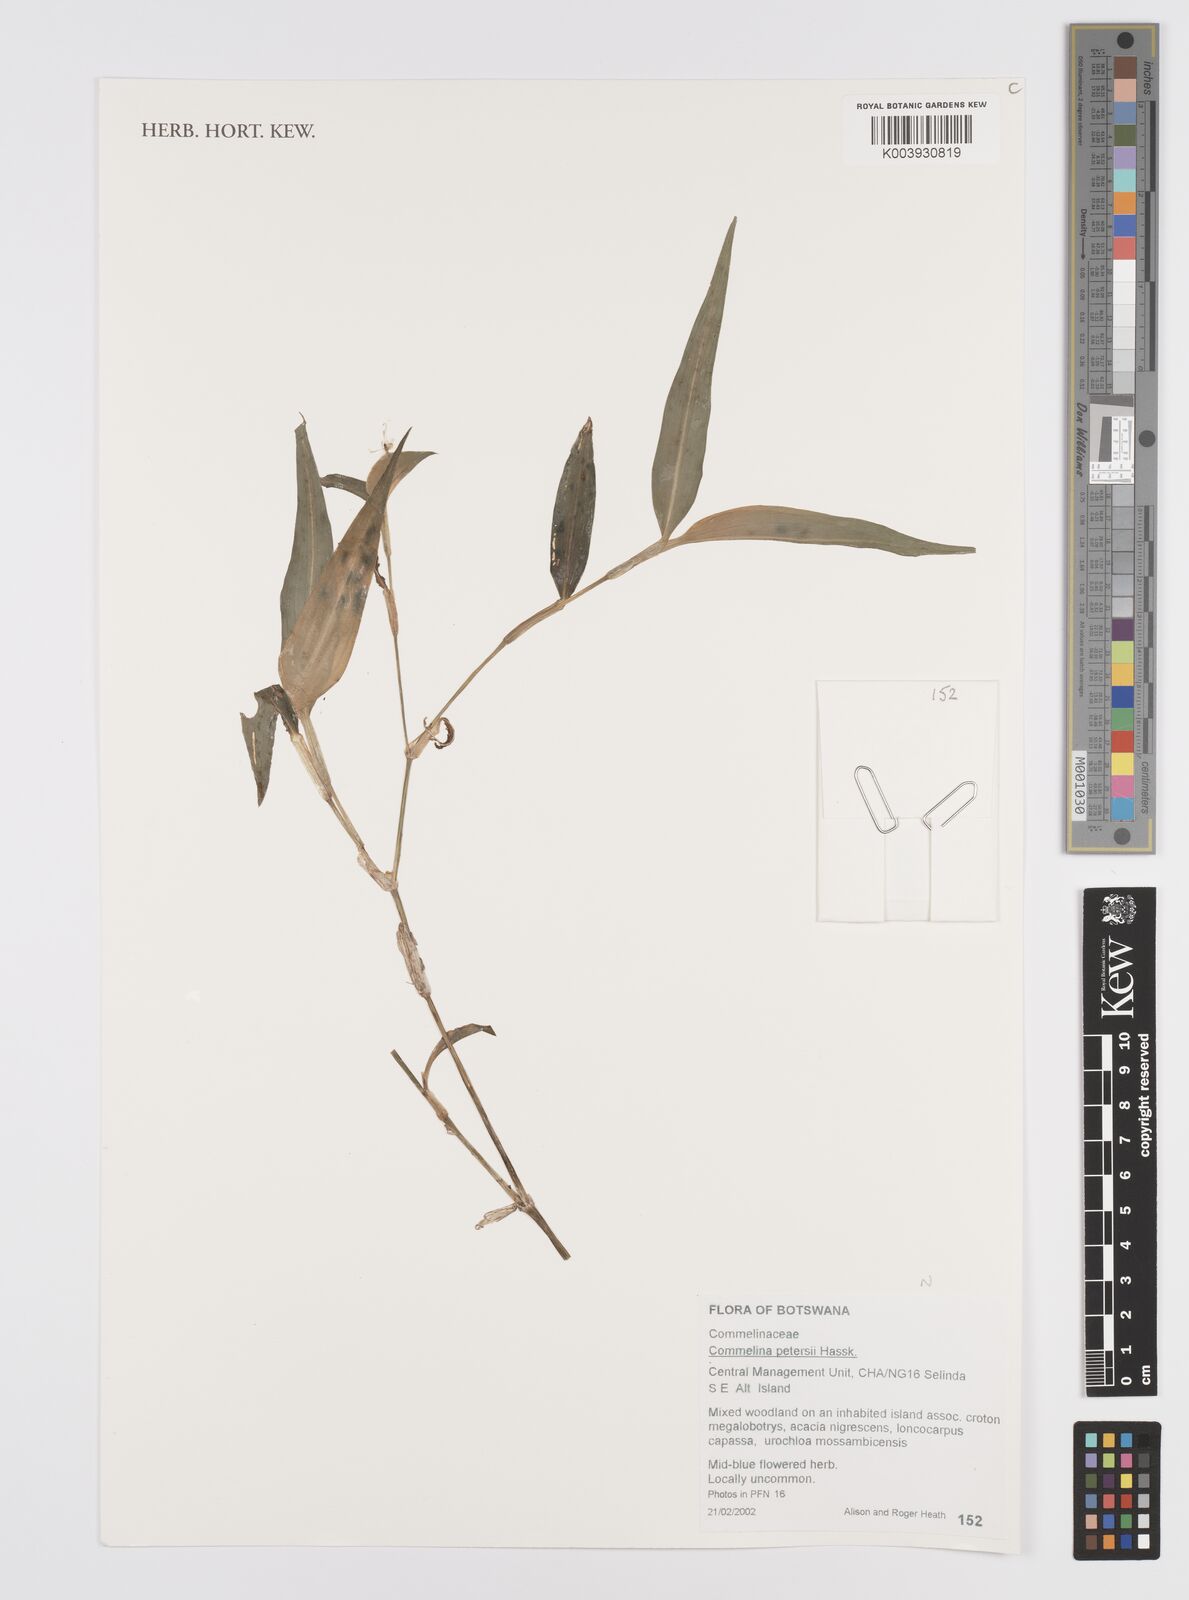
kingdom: Plantae
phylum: Tracheophyta
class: Liliopsida
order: Commelinales
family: Commelinaceae
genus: Commelina
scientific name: Commelina petersii
